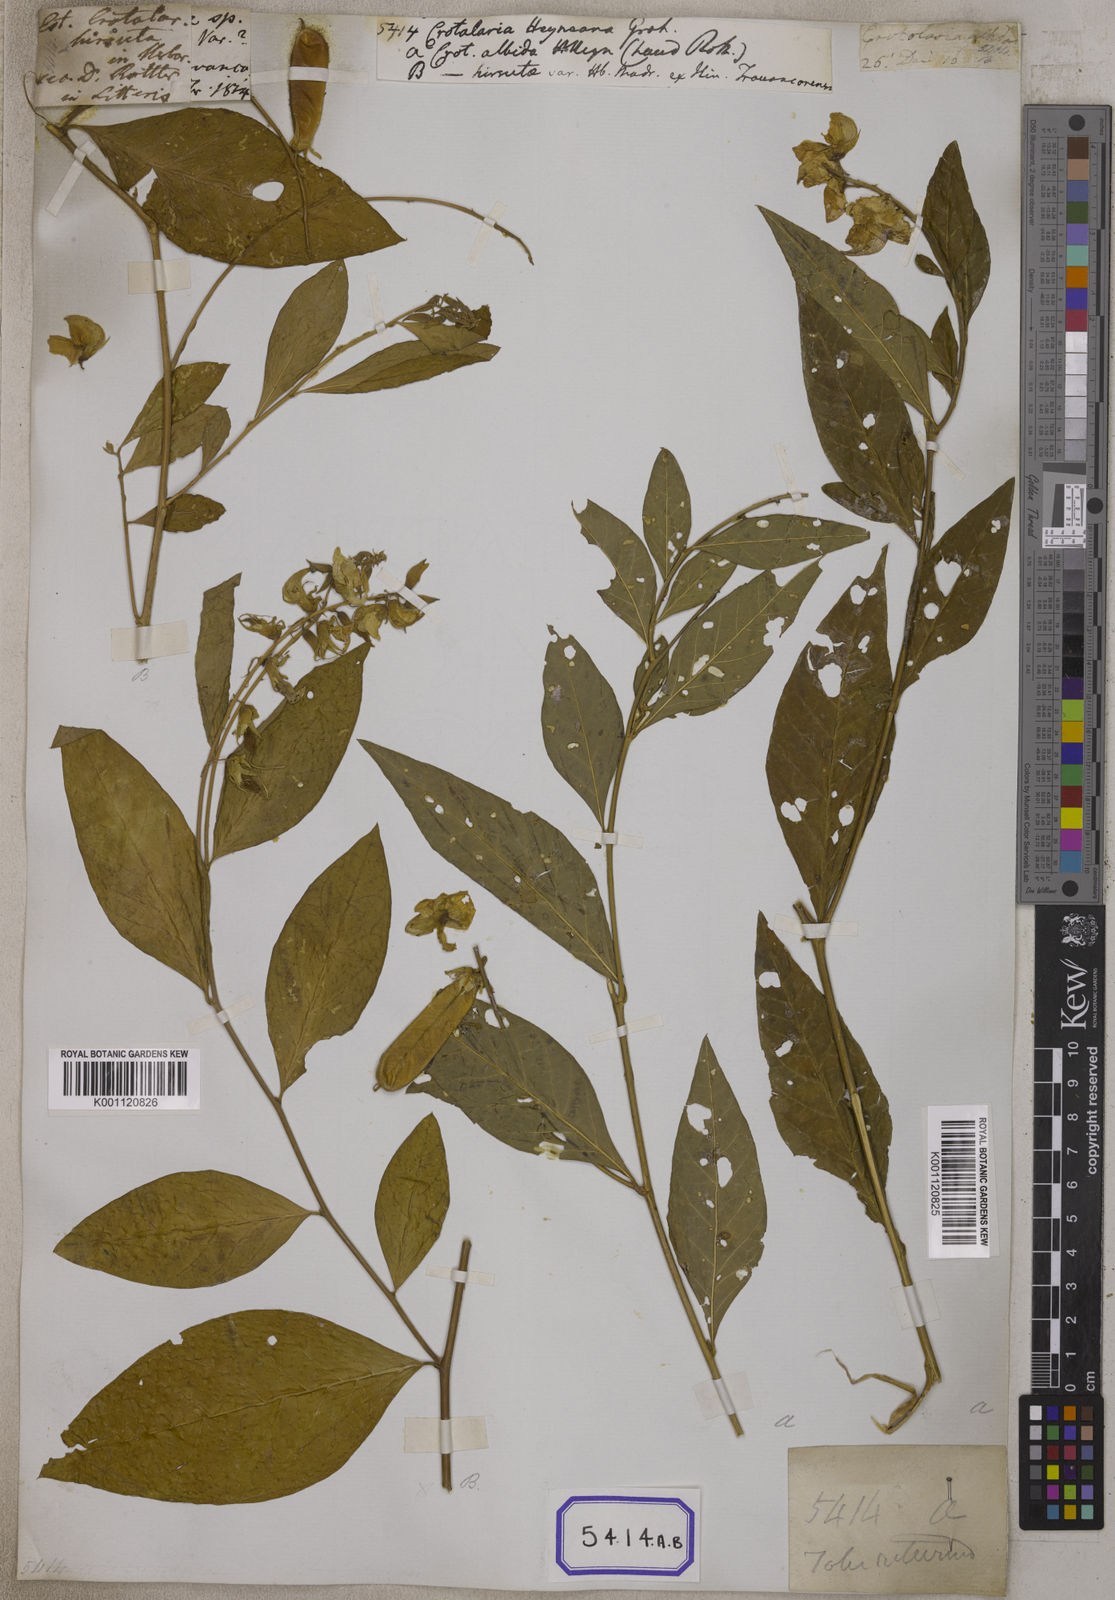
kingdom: Plantae
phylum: Tracheophyta
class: Magnoliopsida
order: Fabales
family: Fabaceae
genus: Crotalaria
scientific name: Crotalaria
